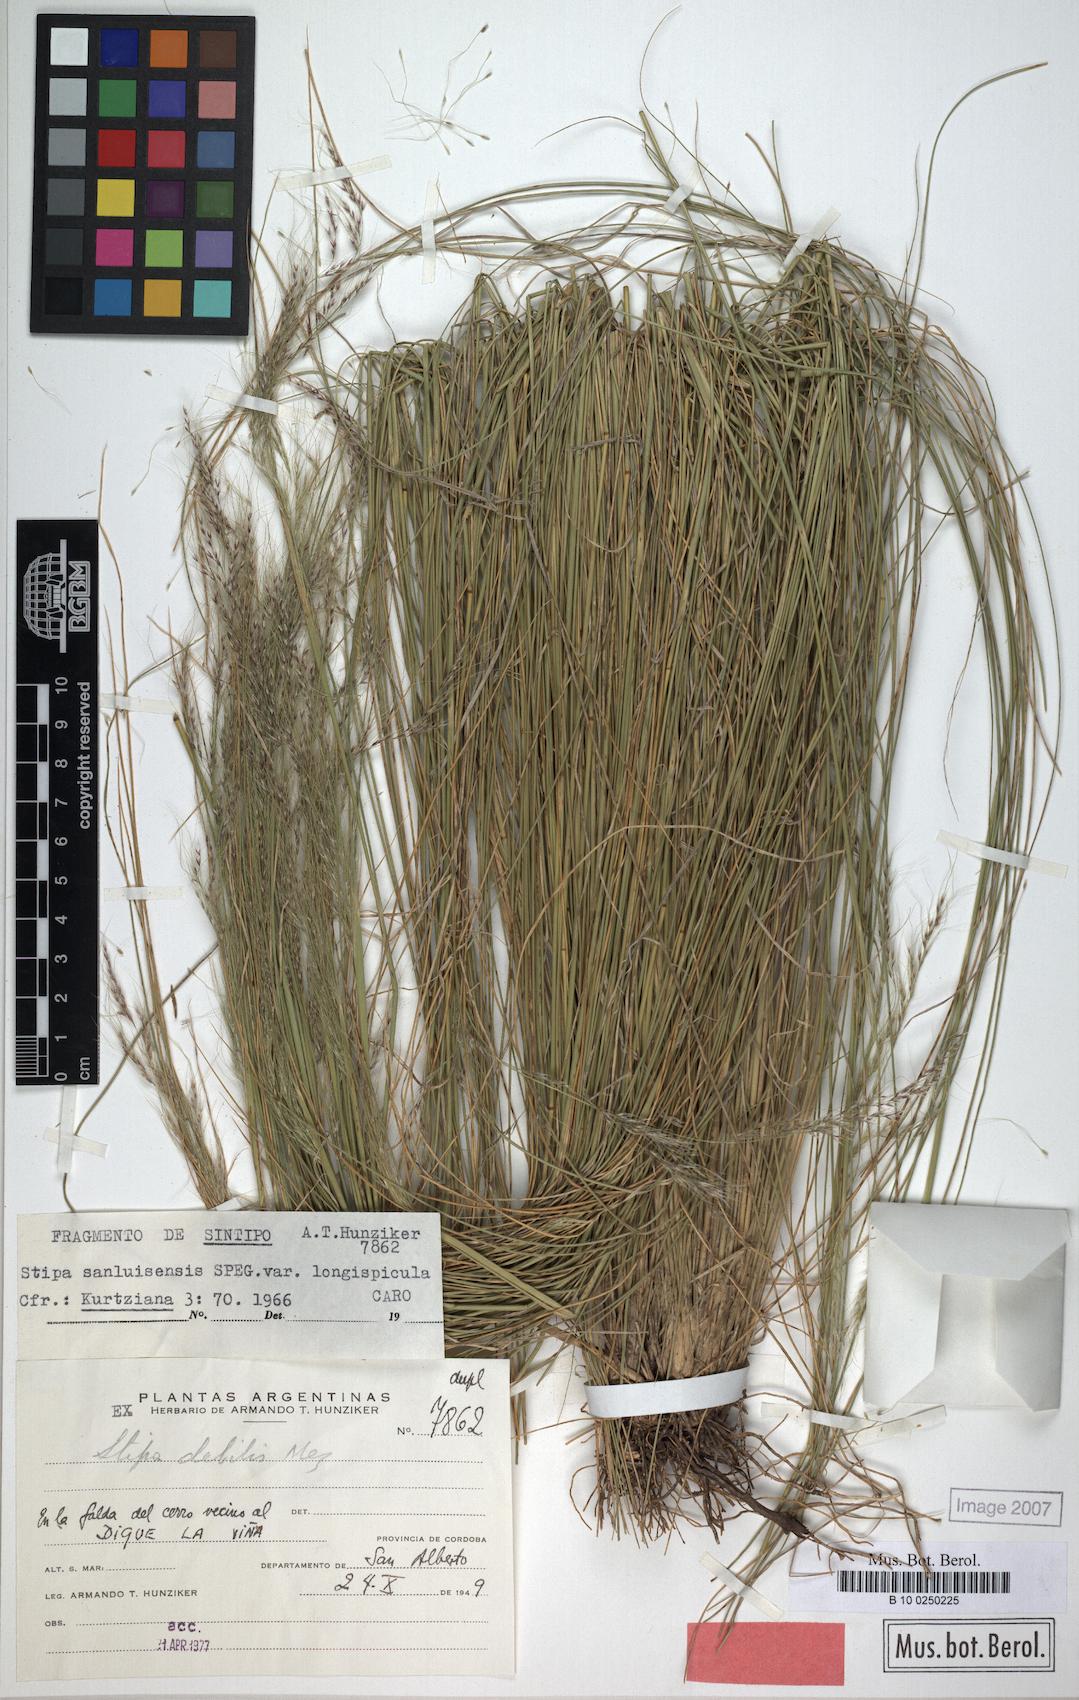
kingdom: Plantae
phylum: Tracheophyta
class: Liliopsida
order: Poales
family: Poaceae
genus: Nassella
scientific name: Nassella sanluisensis
